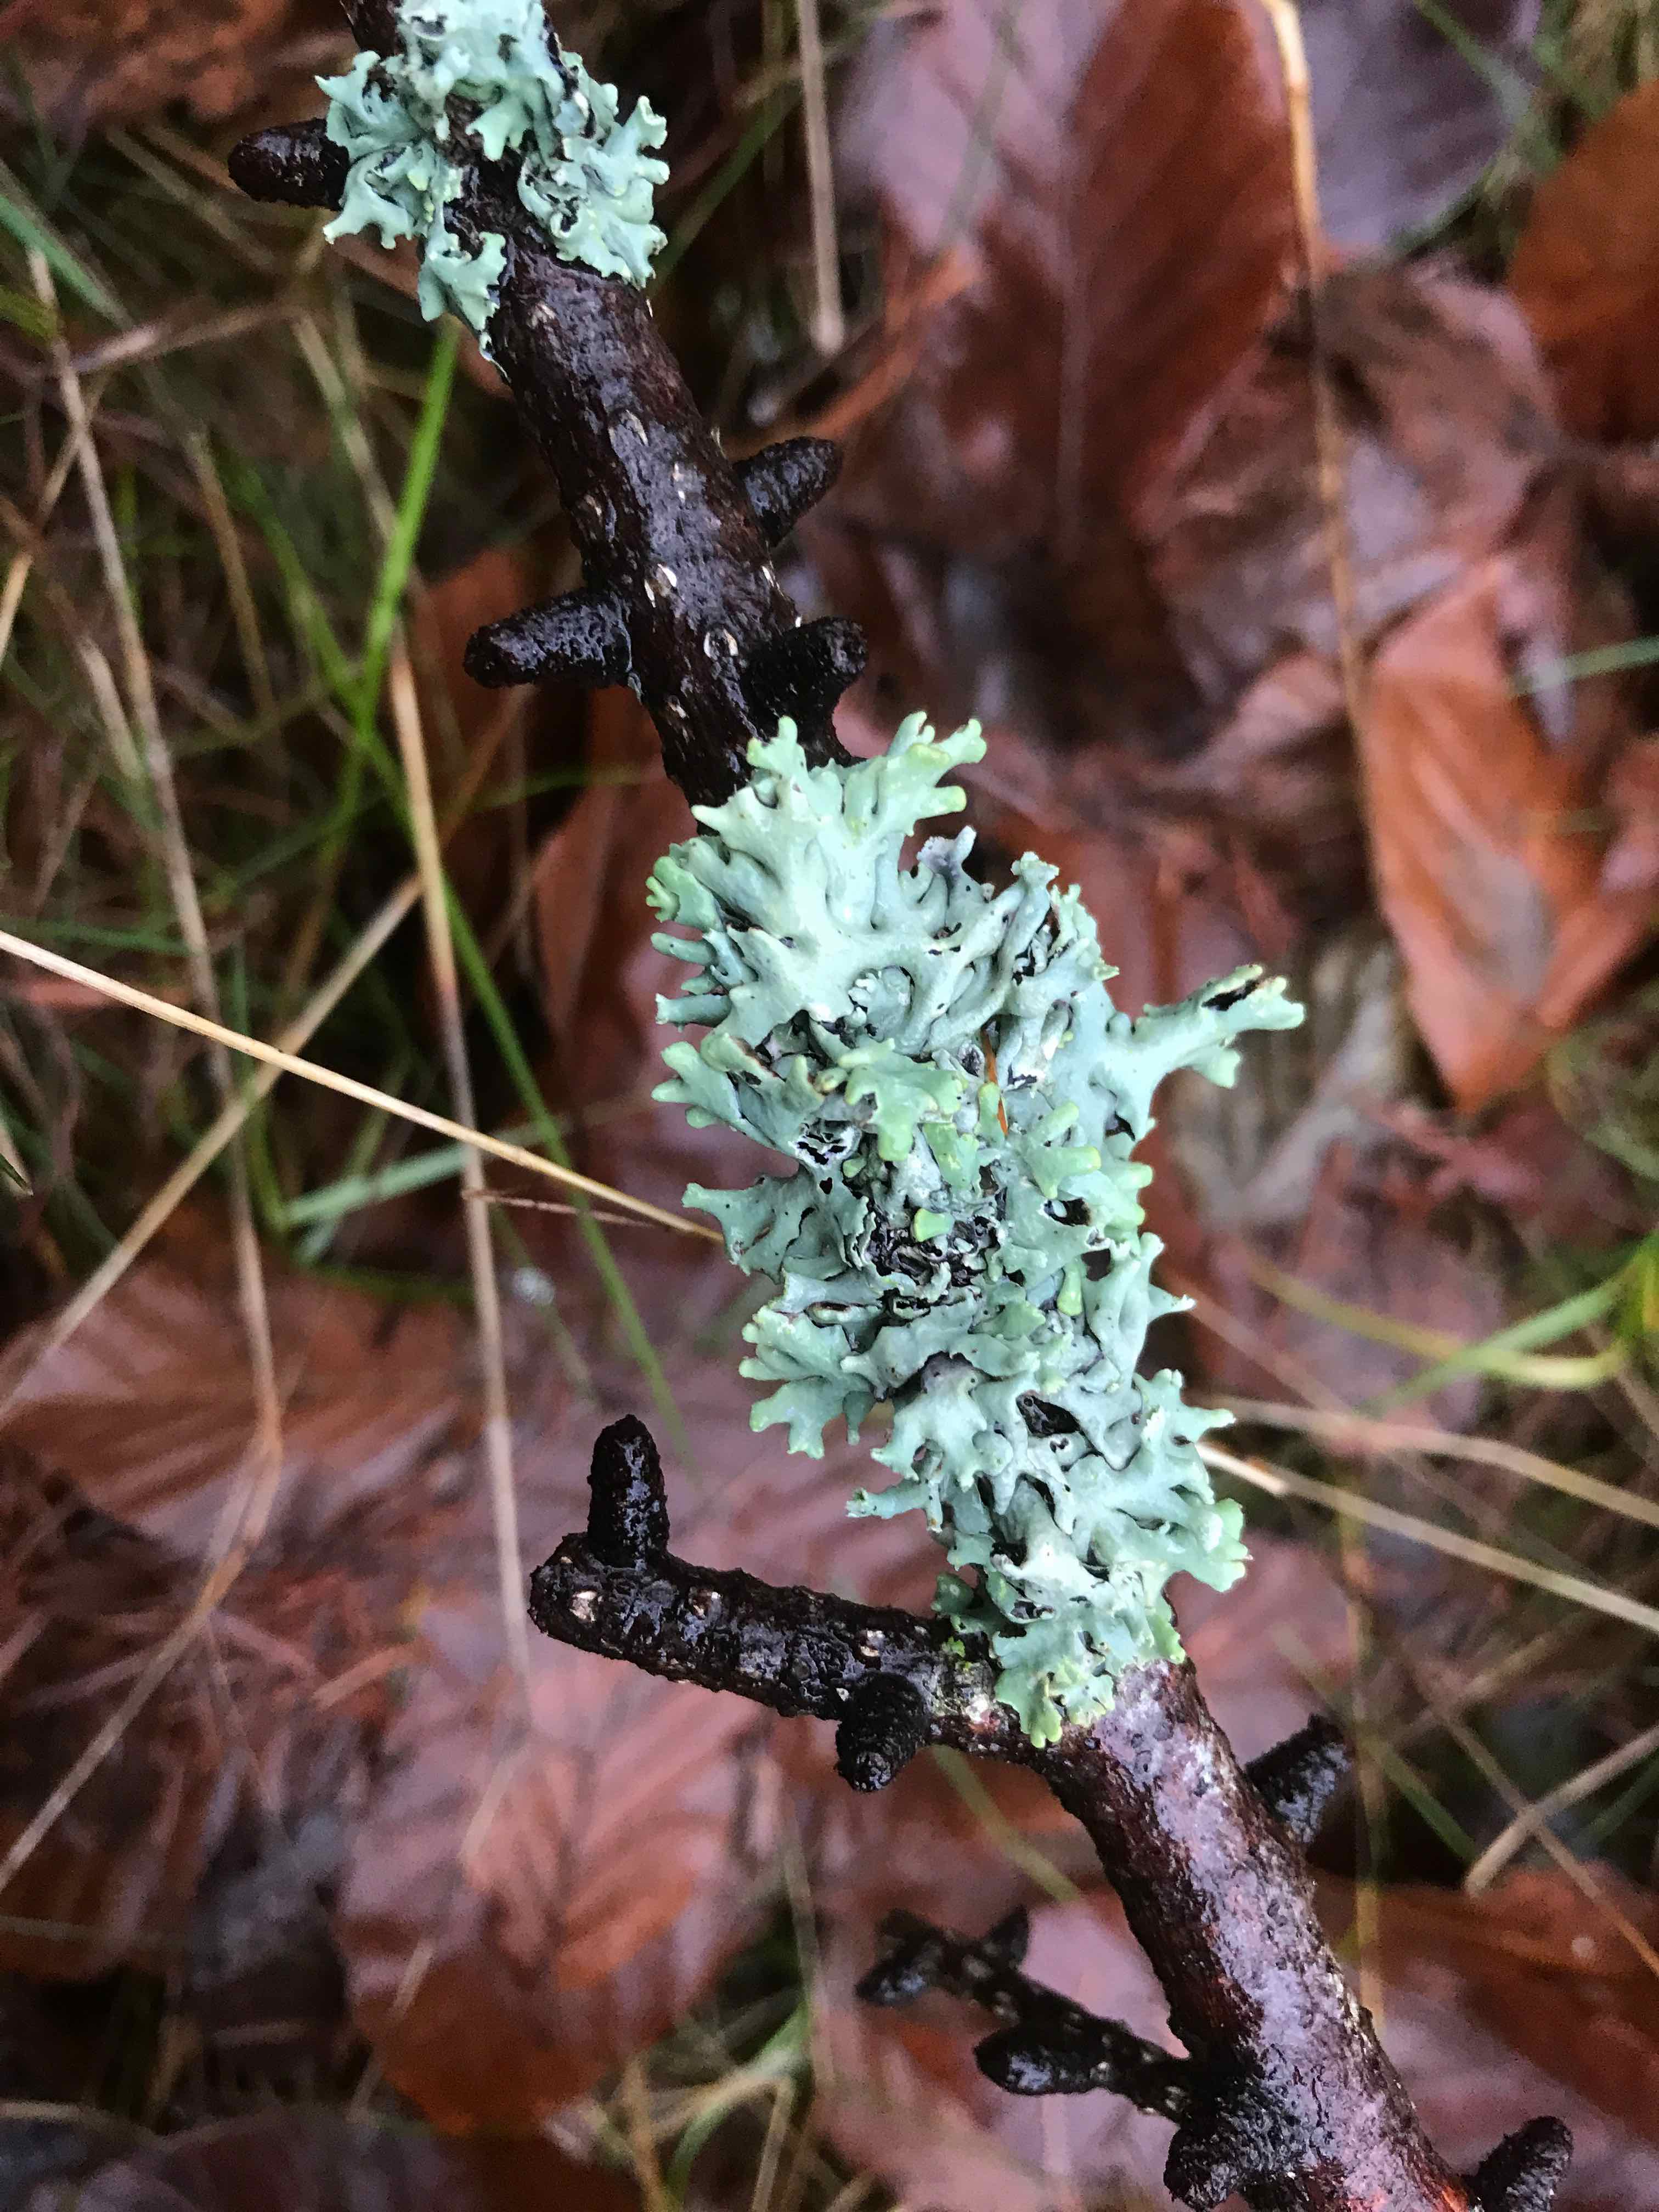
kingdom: Fungi
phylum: Ascomycota
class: Lecanoromycetes
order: Lecanorales
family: Parmeliaceae
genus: Hypogymnia
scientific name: Hypogymnia physodes
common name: almindelig kvistlav
